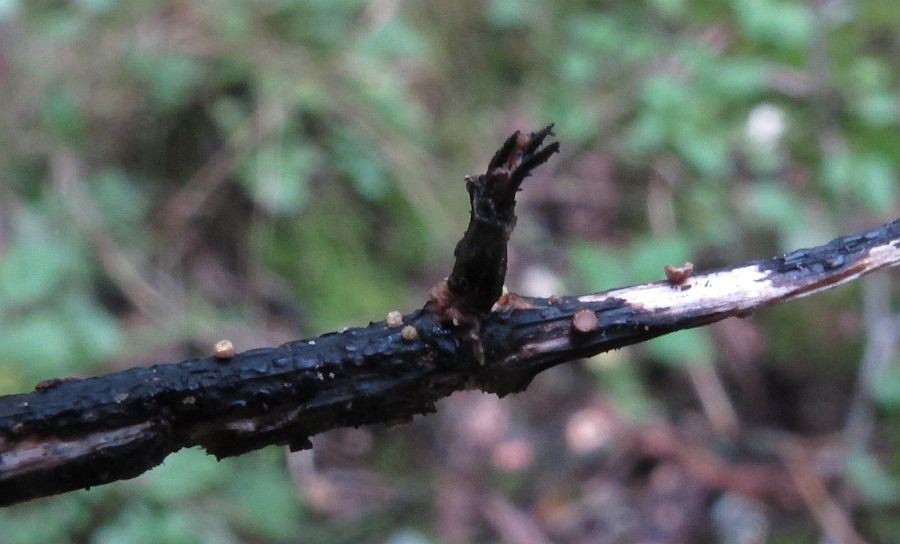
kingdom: Fungi
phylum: Ascomycota
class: Leotiomycetes
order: Helotiales
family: Lachnaceae
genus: Lachnum
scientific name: Lachnum sulphureum
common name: svovlhåret frynseskive
